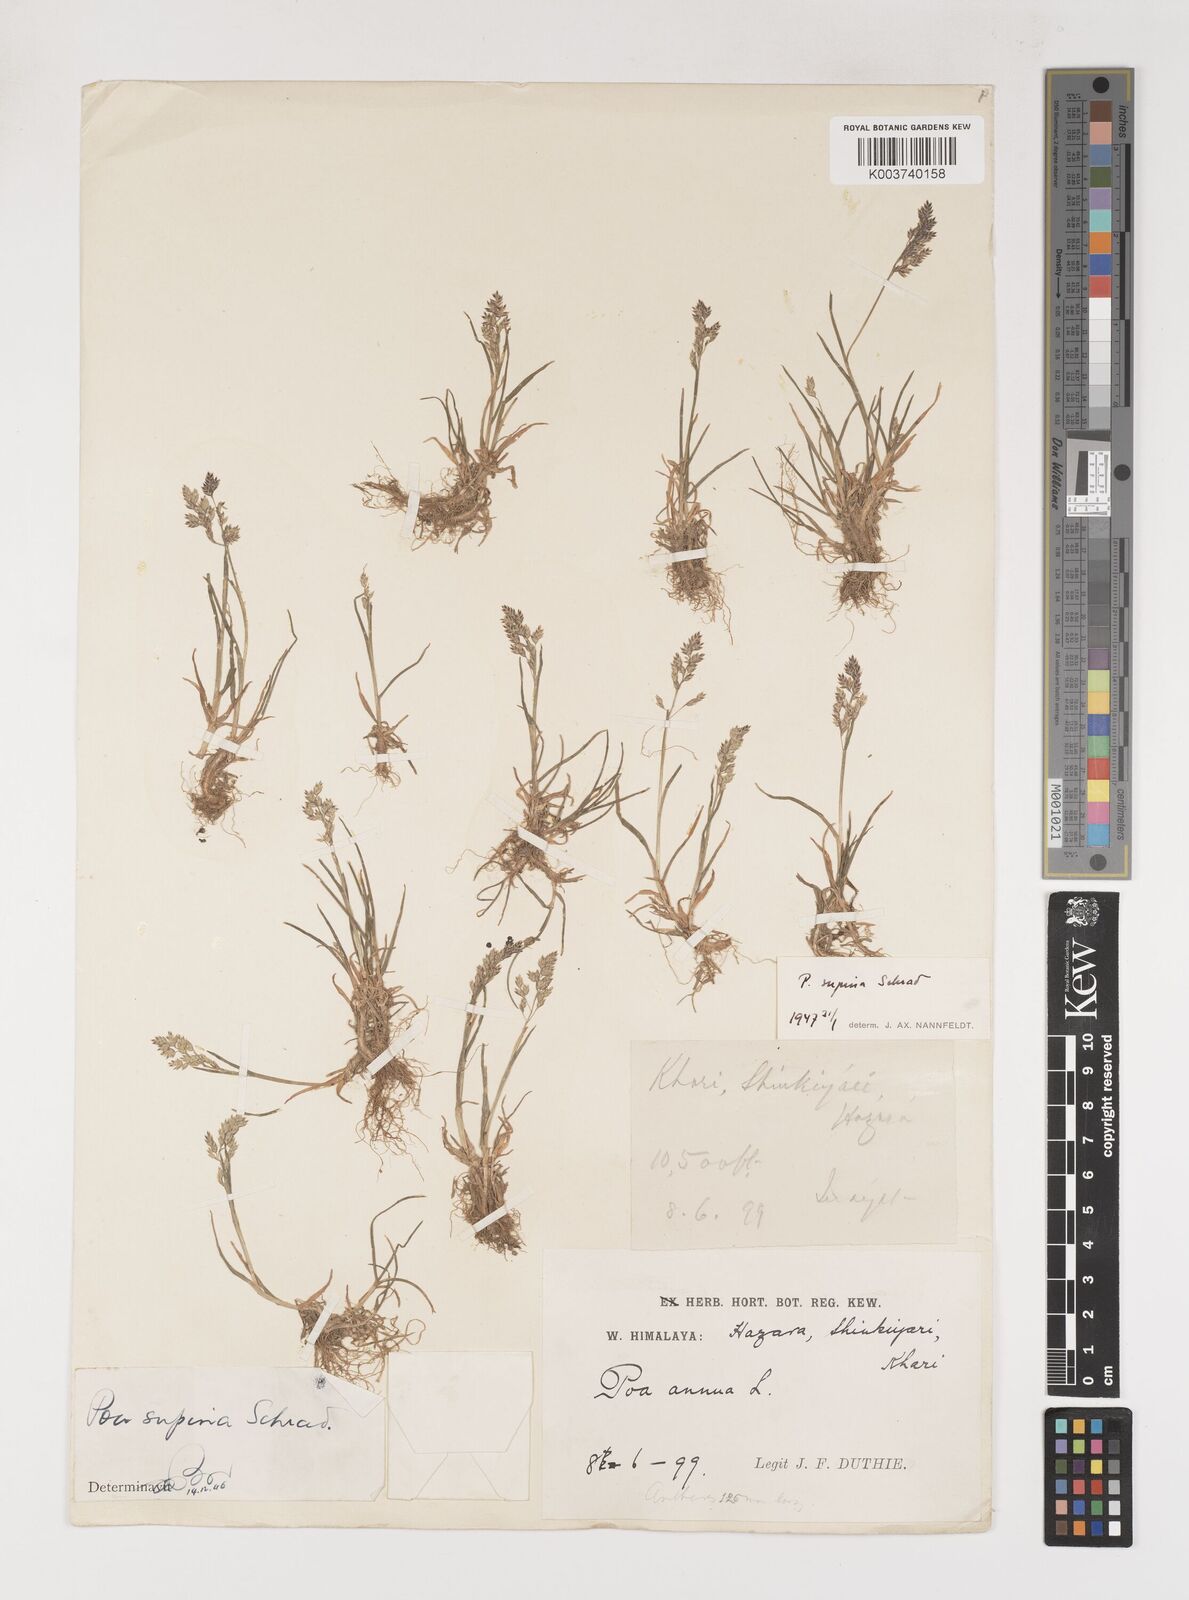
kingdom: Plantae
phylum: Tracheophyta
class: Liliopsida
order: Poales
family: Poaceae
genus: Poa
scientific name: Poa supina
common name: Supina bluegrass
